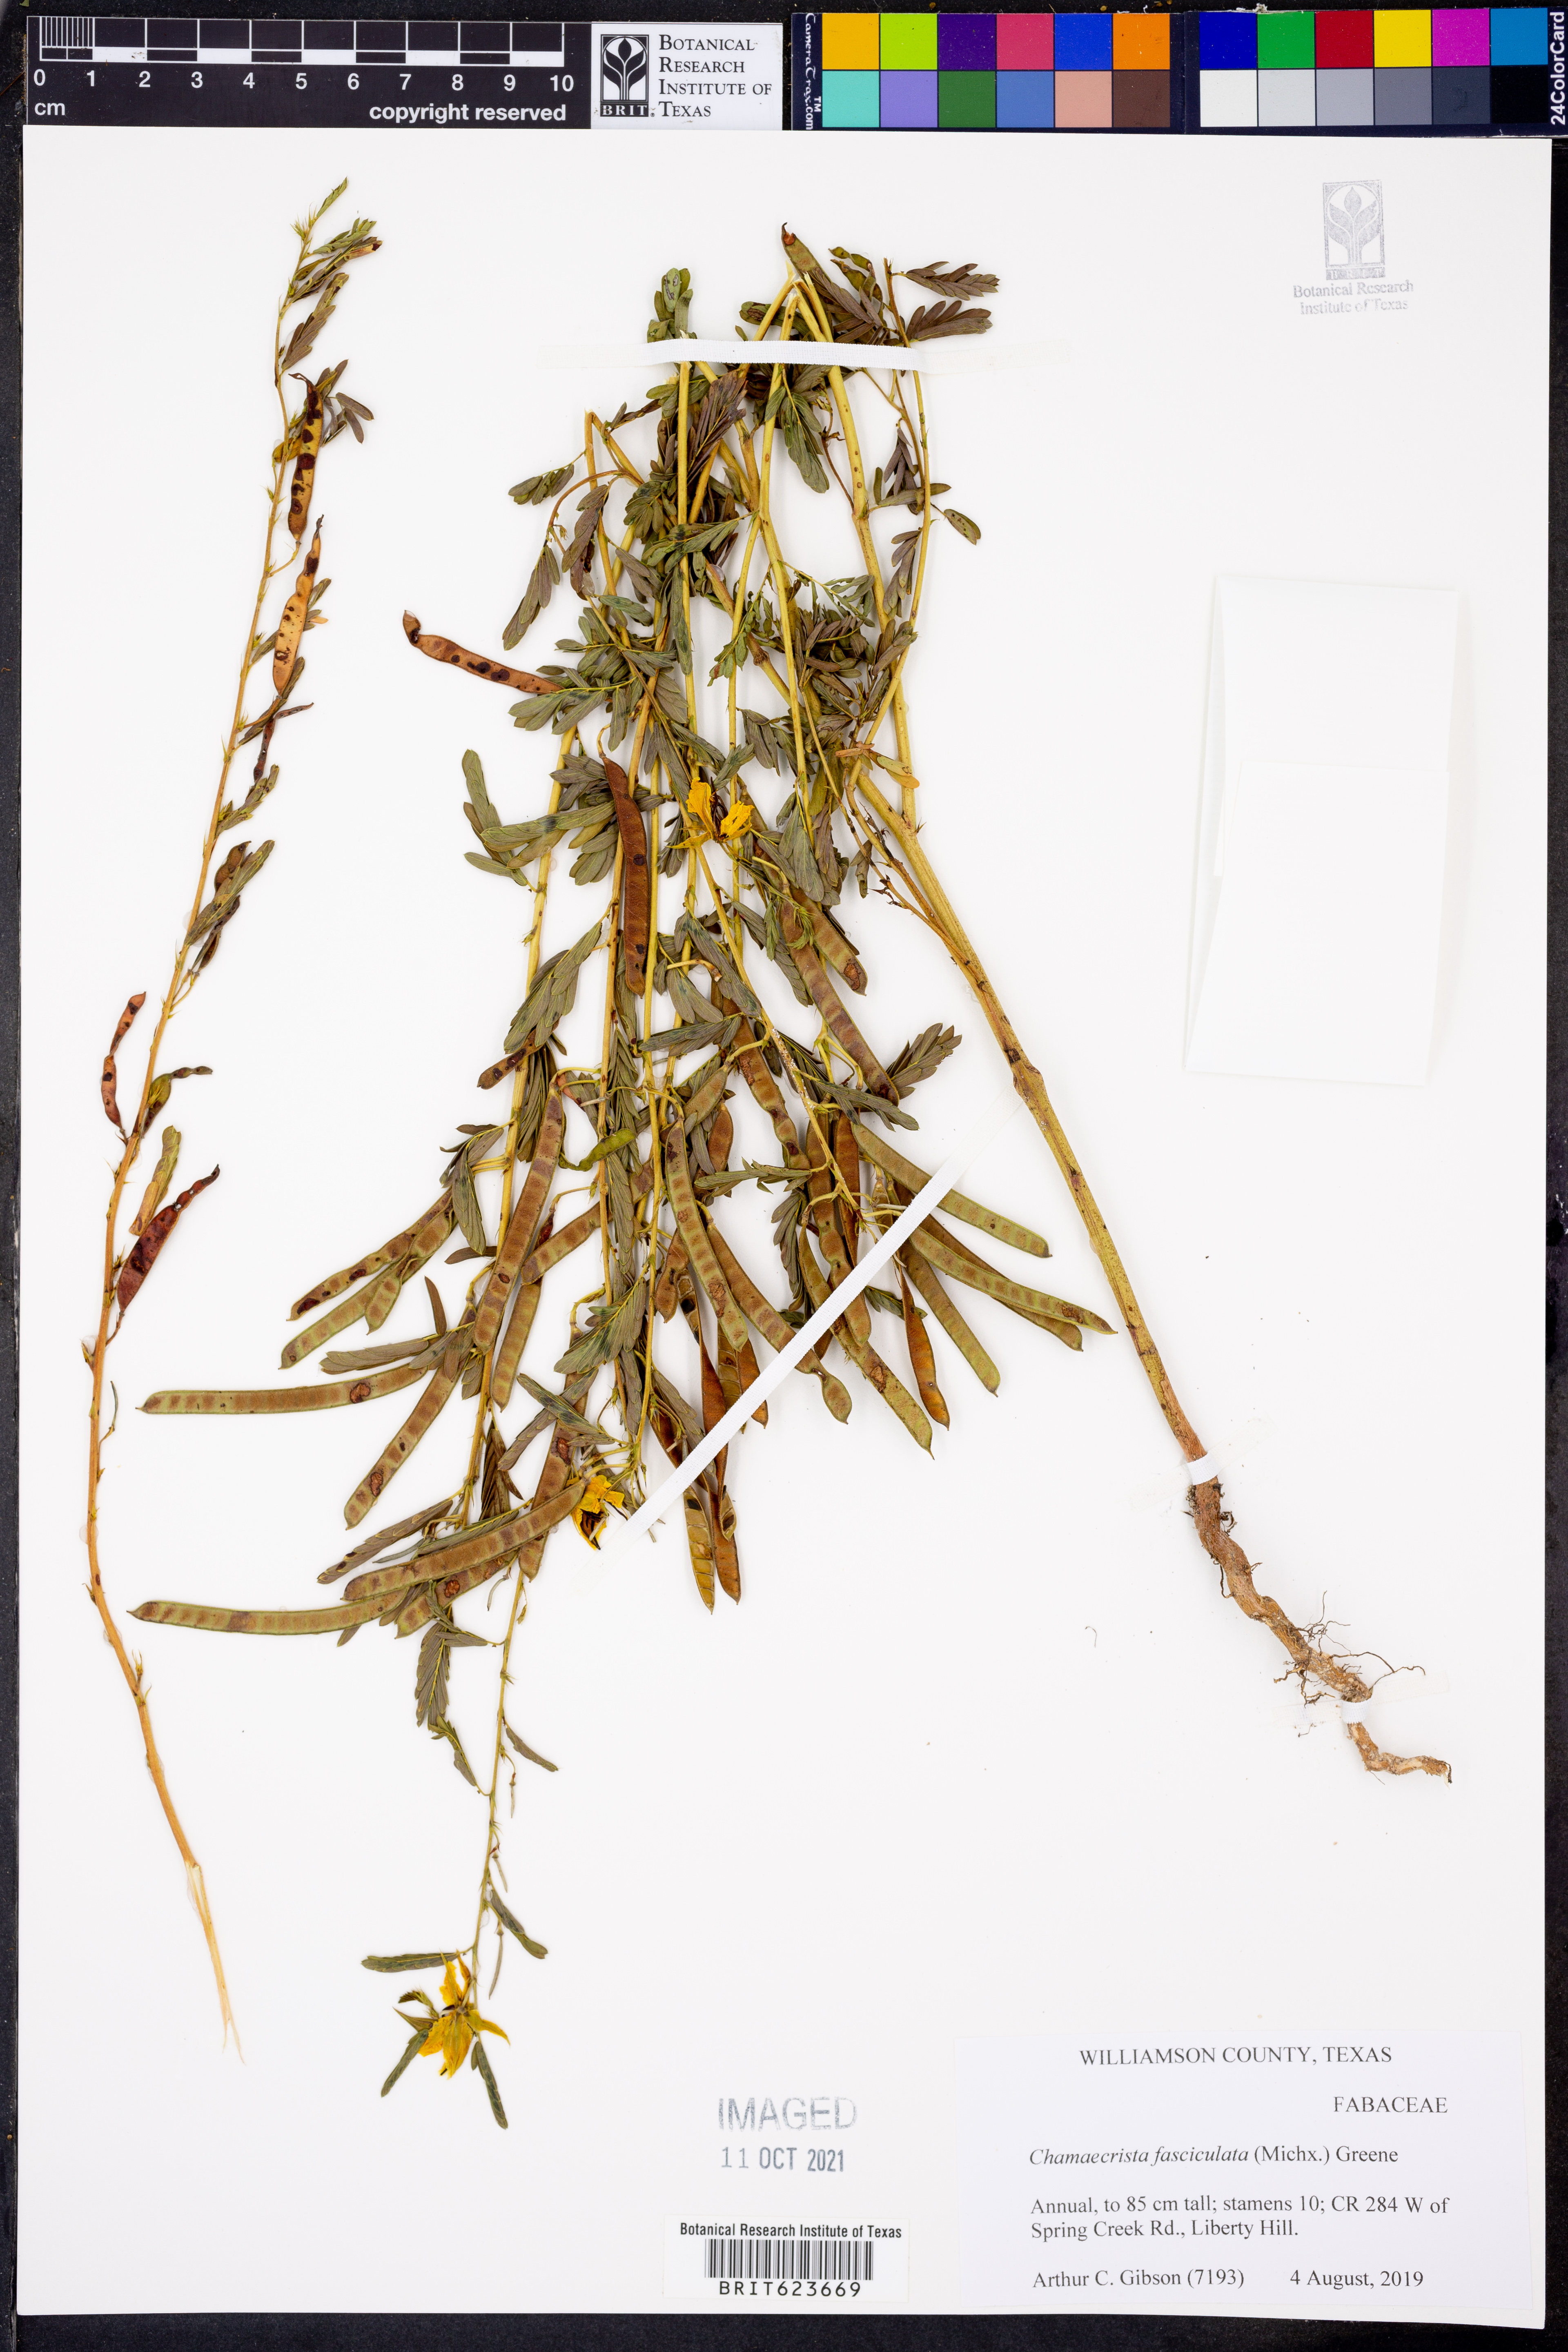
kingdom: Plantae
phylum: Tracheophyta
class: Magnoliopsida
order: Fabales
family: Fabaceae
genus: Chamaecrista
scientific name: Chamaecrista fasciculata
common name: Golden cassia
